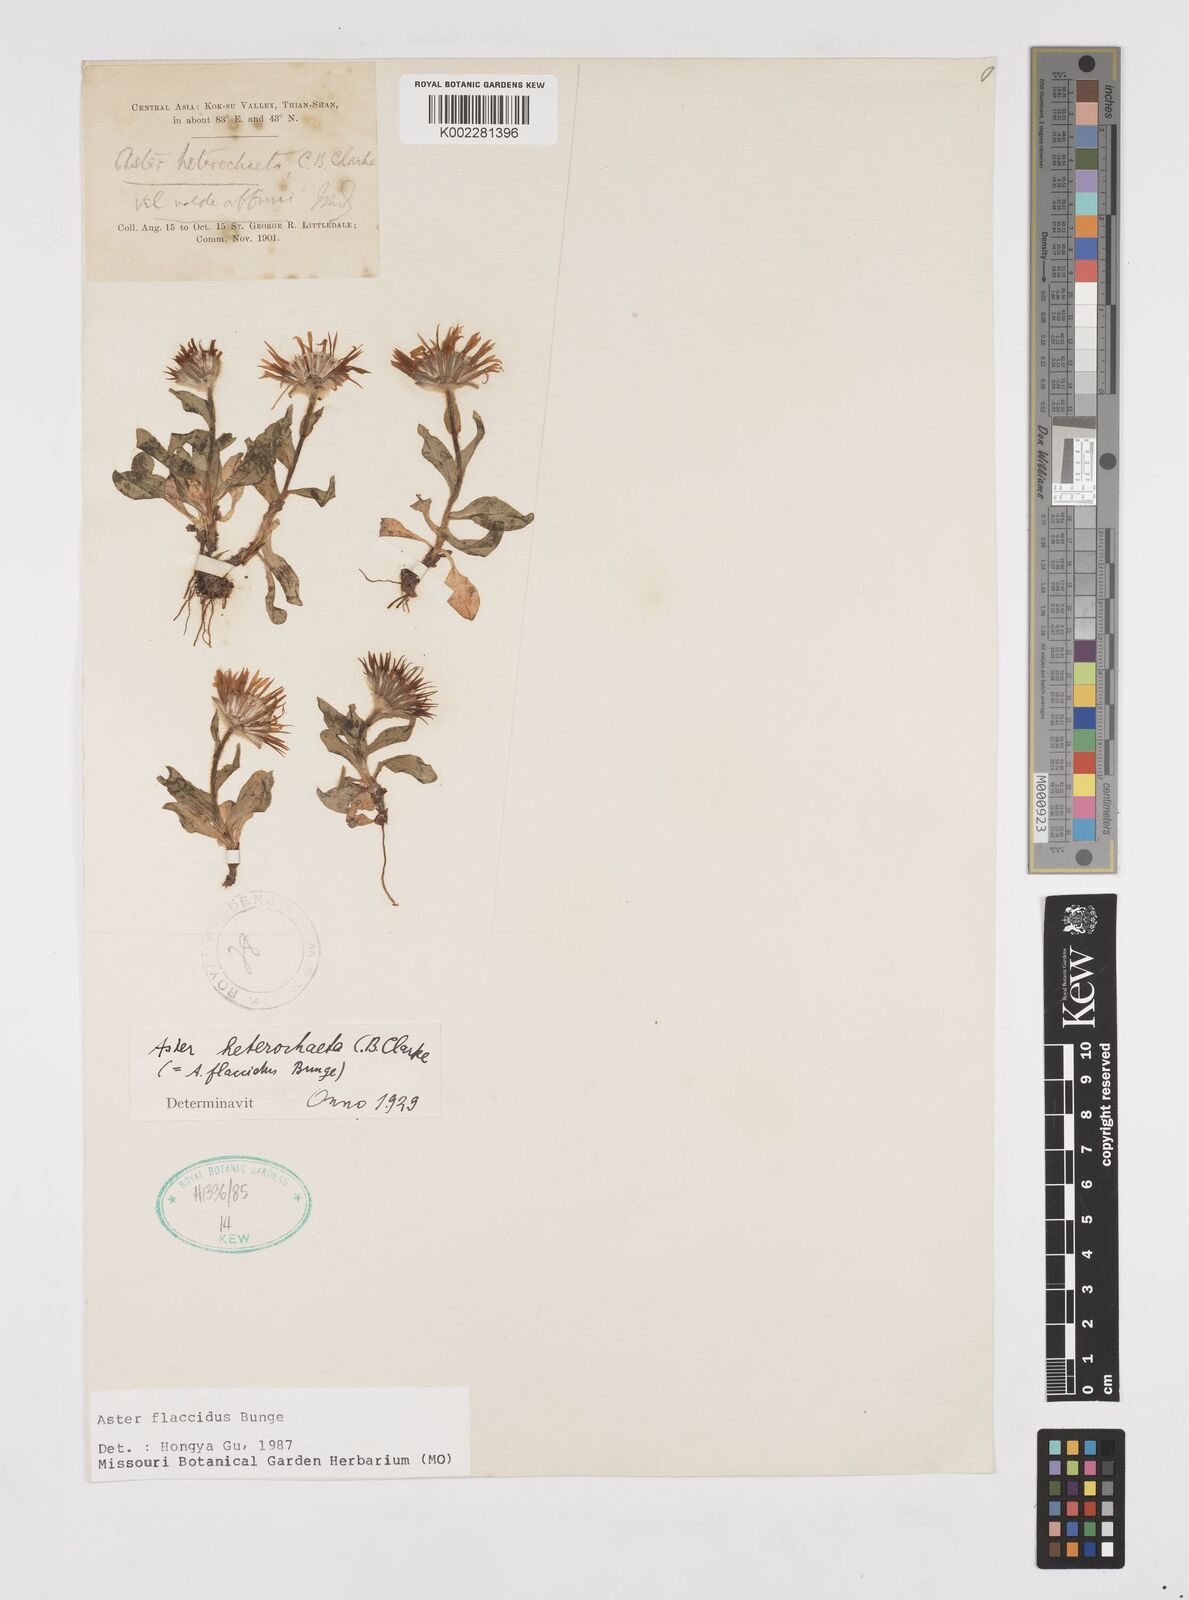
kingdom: Plantae
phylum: Tracheophyta
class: Magnoliopsida
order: Asterales
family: Asteraceae
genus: Tibetiodes
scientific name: Tibetiodes flaccida
